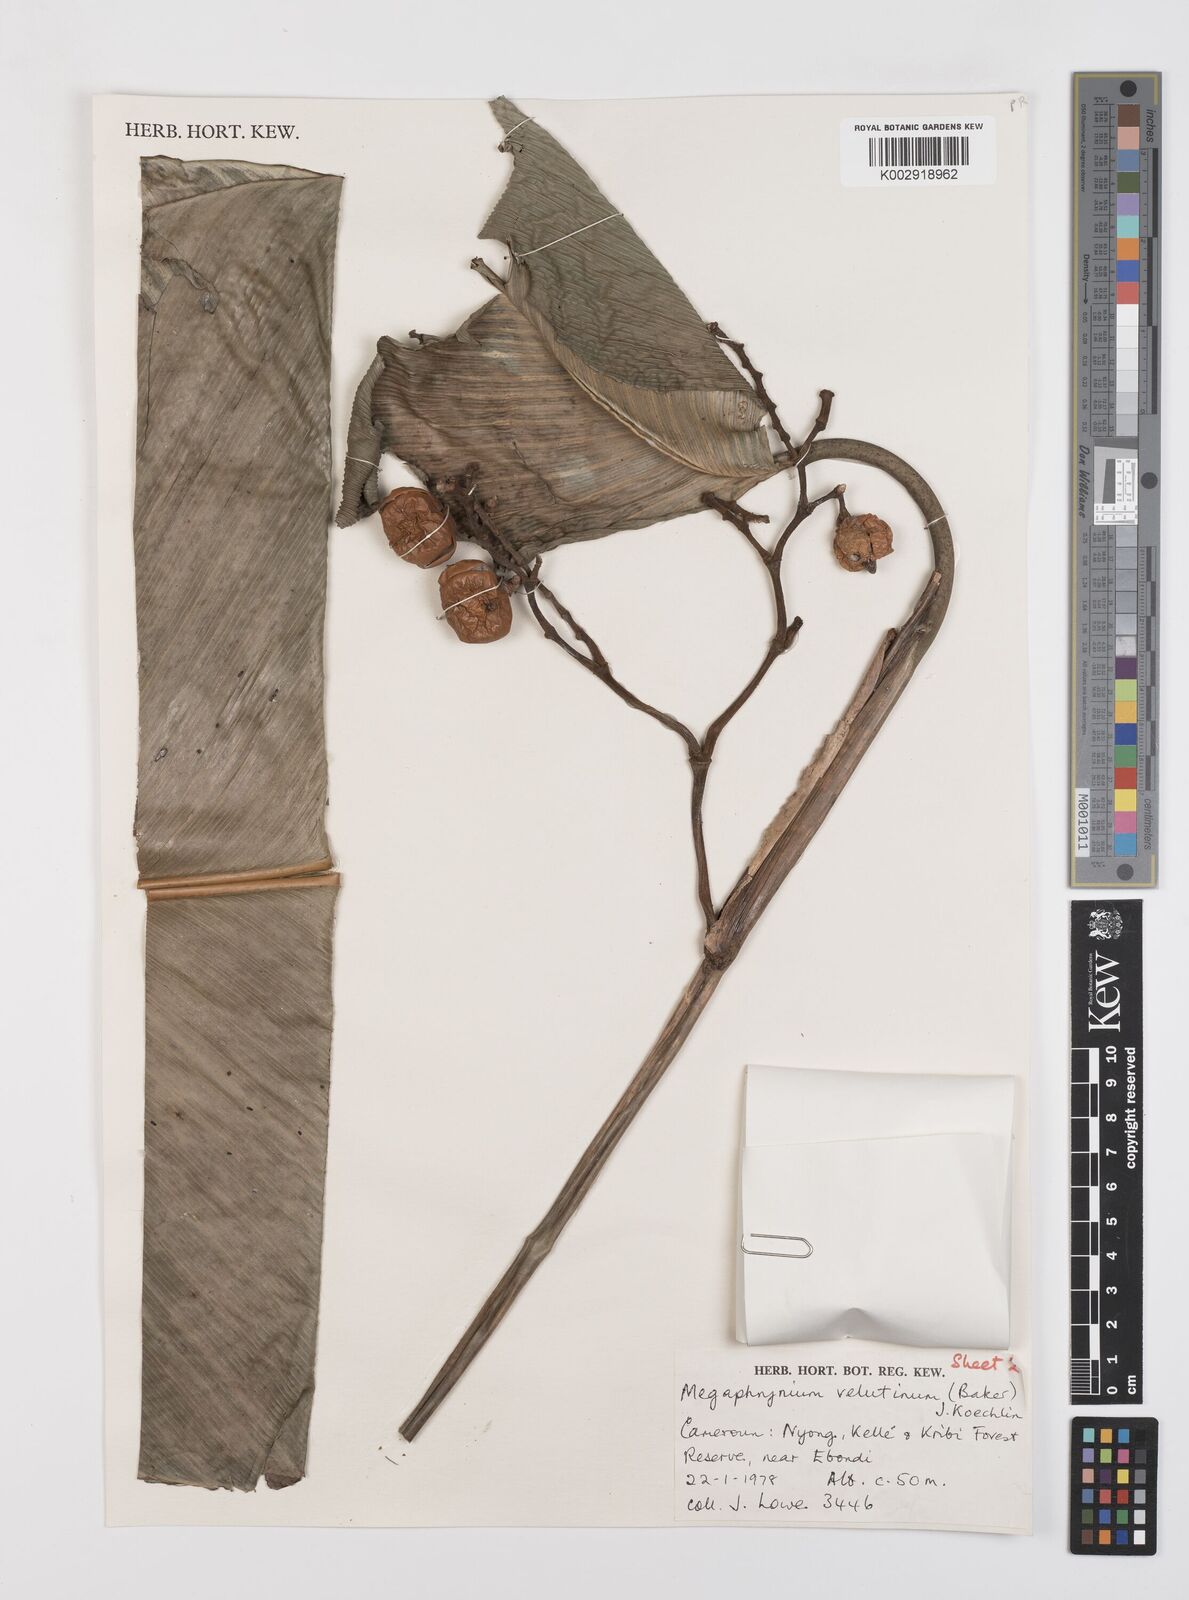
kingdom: Plantae
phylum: Tracheophyta
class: Liliopsida
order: Zingiberales
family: Marantaceae
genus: Megaphrynium
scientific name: Megaphrynium velutinum
